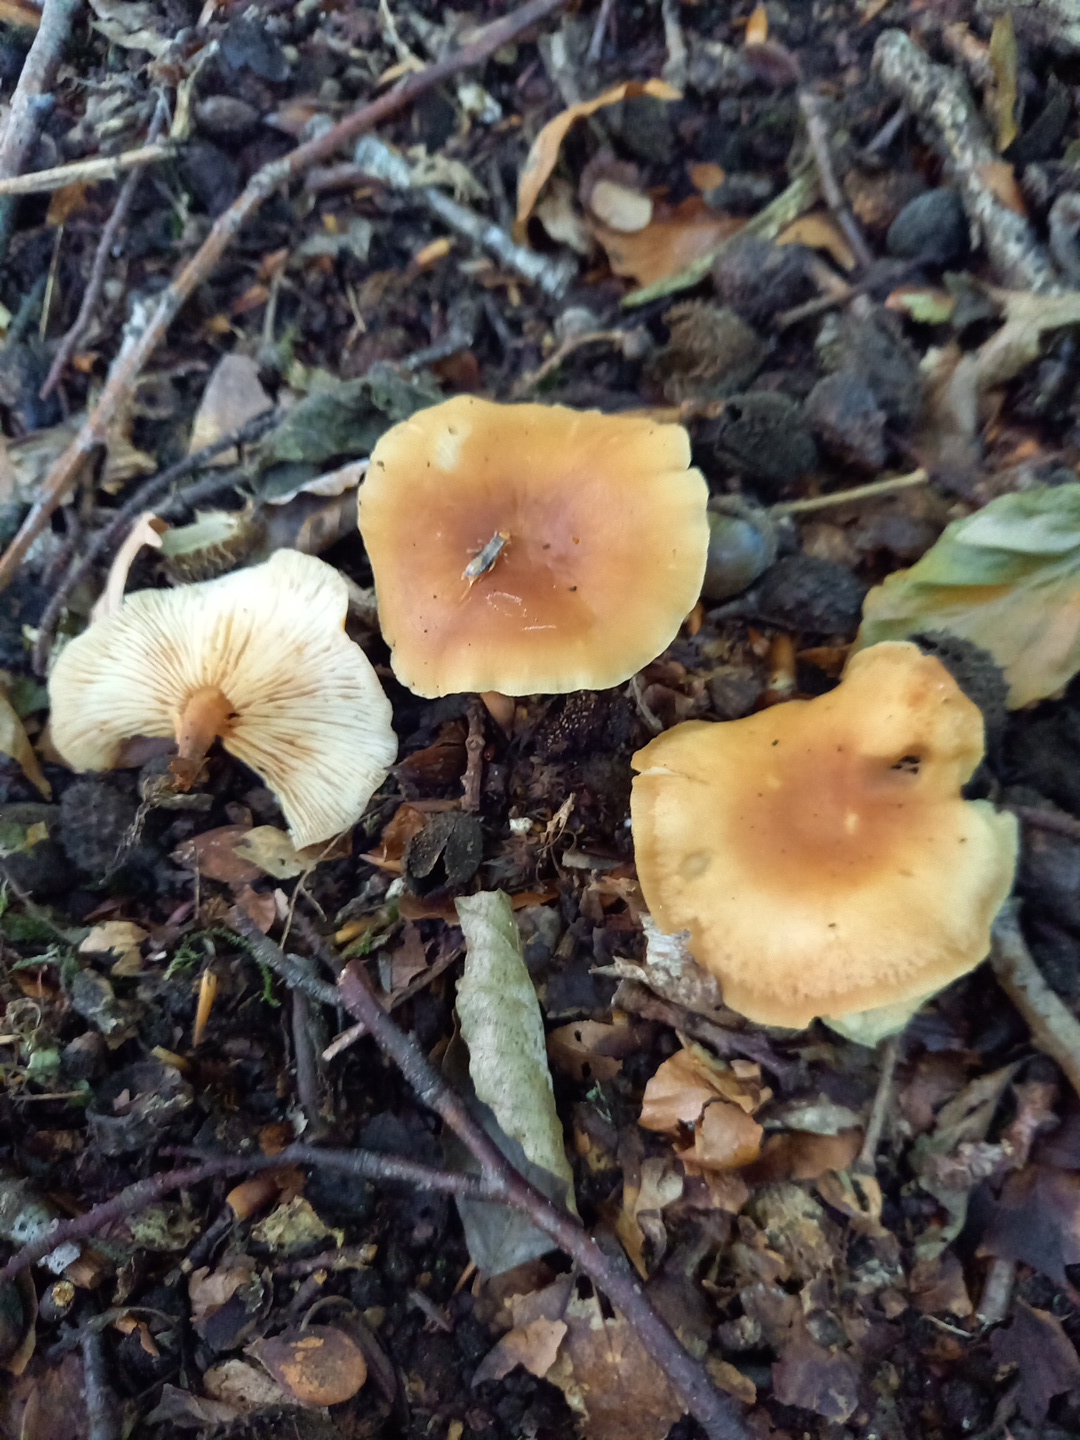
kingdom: Fungi
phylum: Basidiomycota
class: Agaricomycetes
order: Agaricales
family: Omphalotaceae
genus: Gymnopus
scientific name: Gymnopus dryophilus
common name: løv-fladhat
